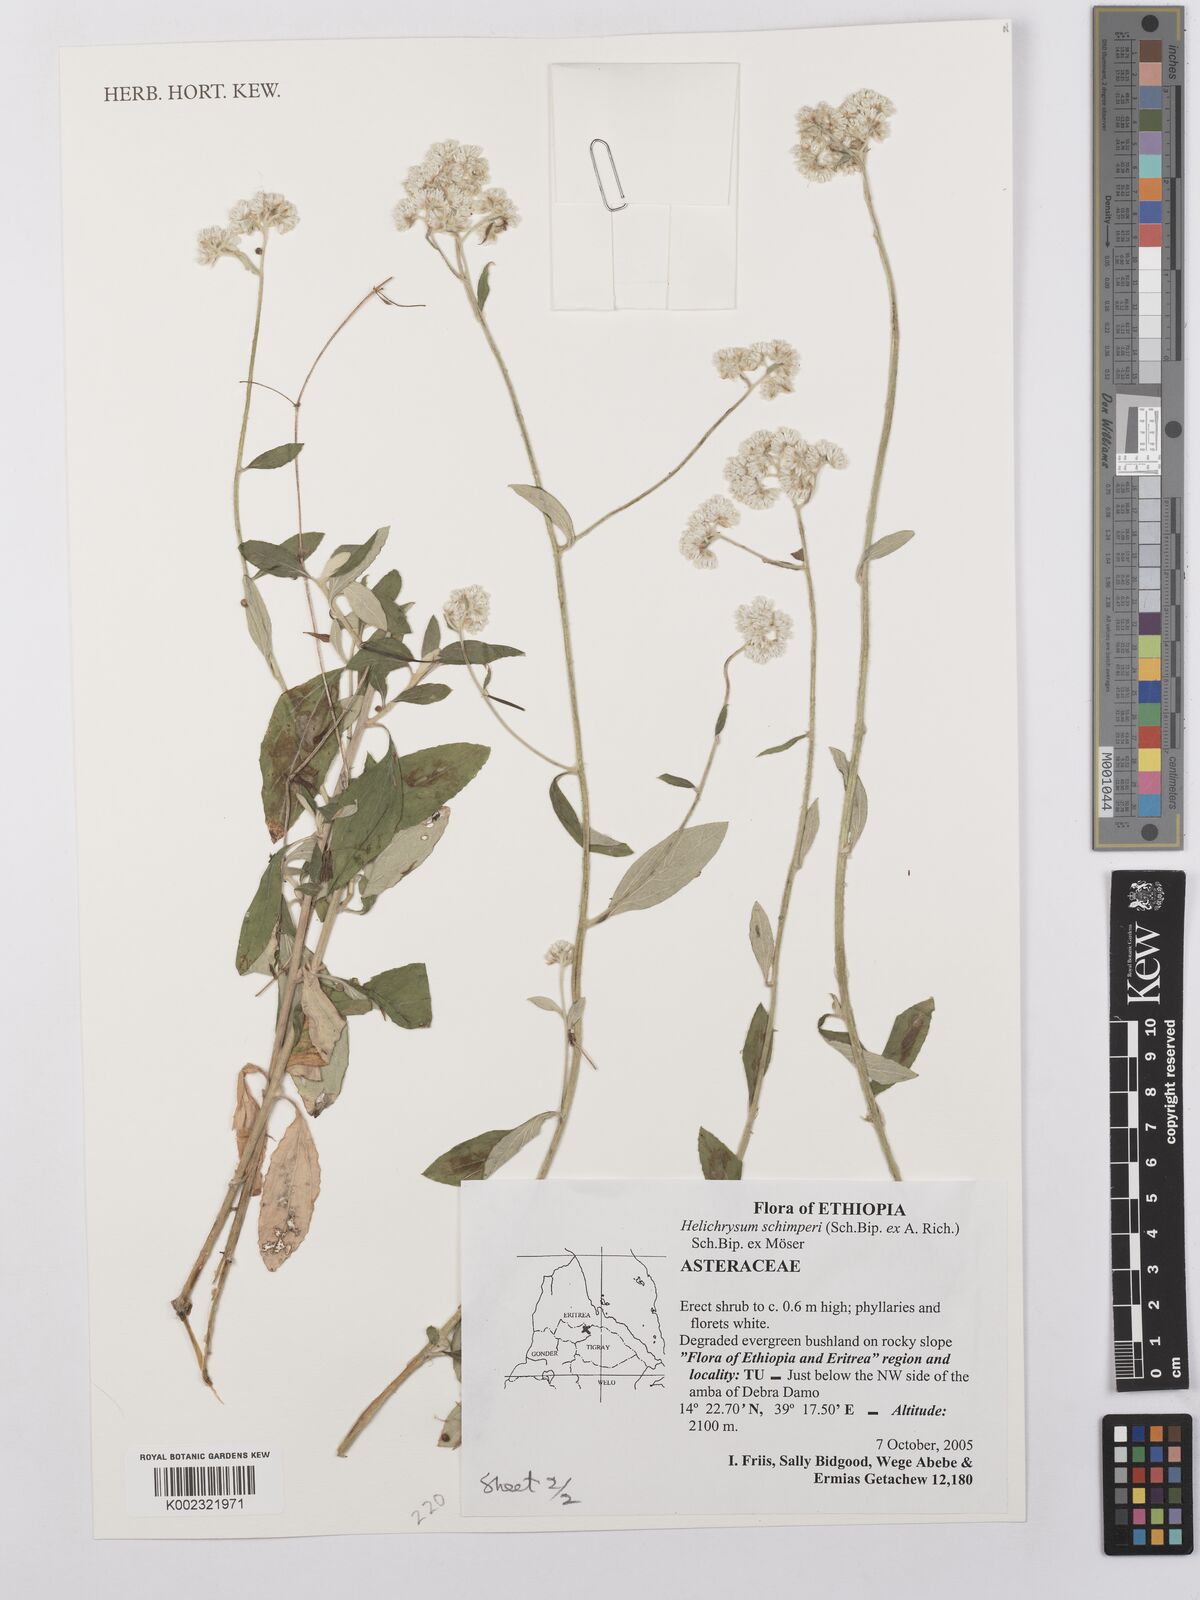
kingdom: Plantae
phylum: Tracheophyta
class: Magnoliopsida
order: Asterales
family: Asteraceae
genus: Helichrysum
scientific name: Helichrysum schimperi
